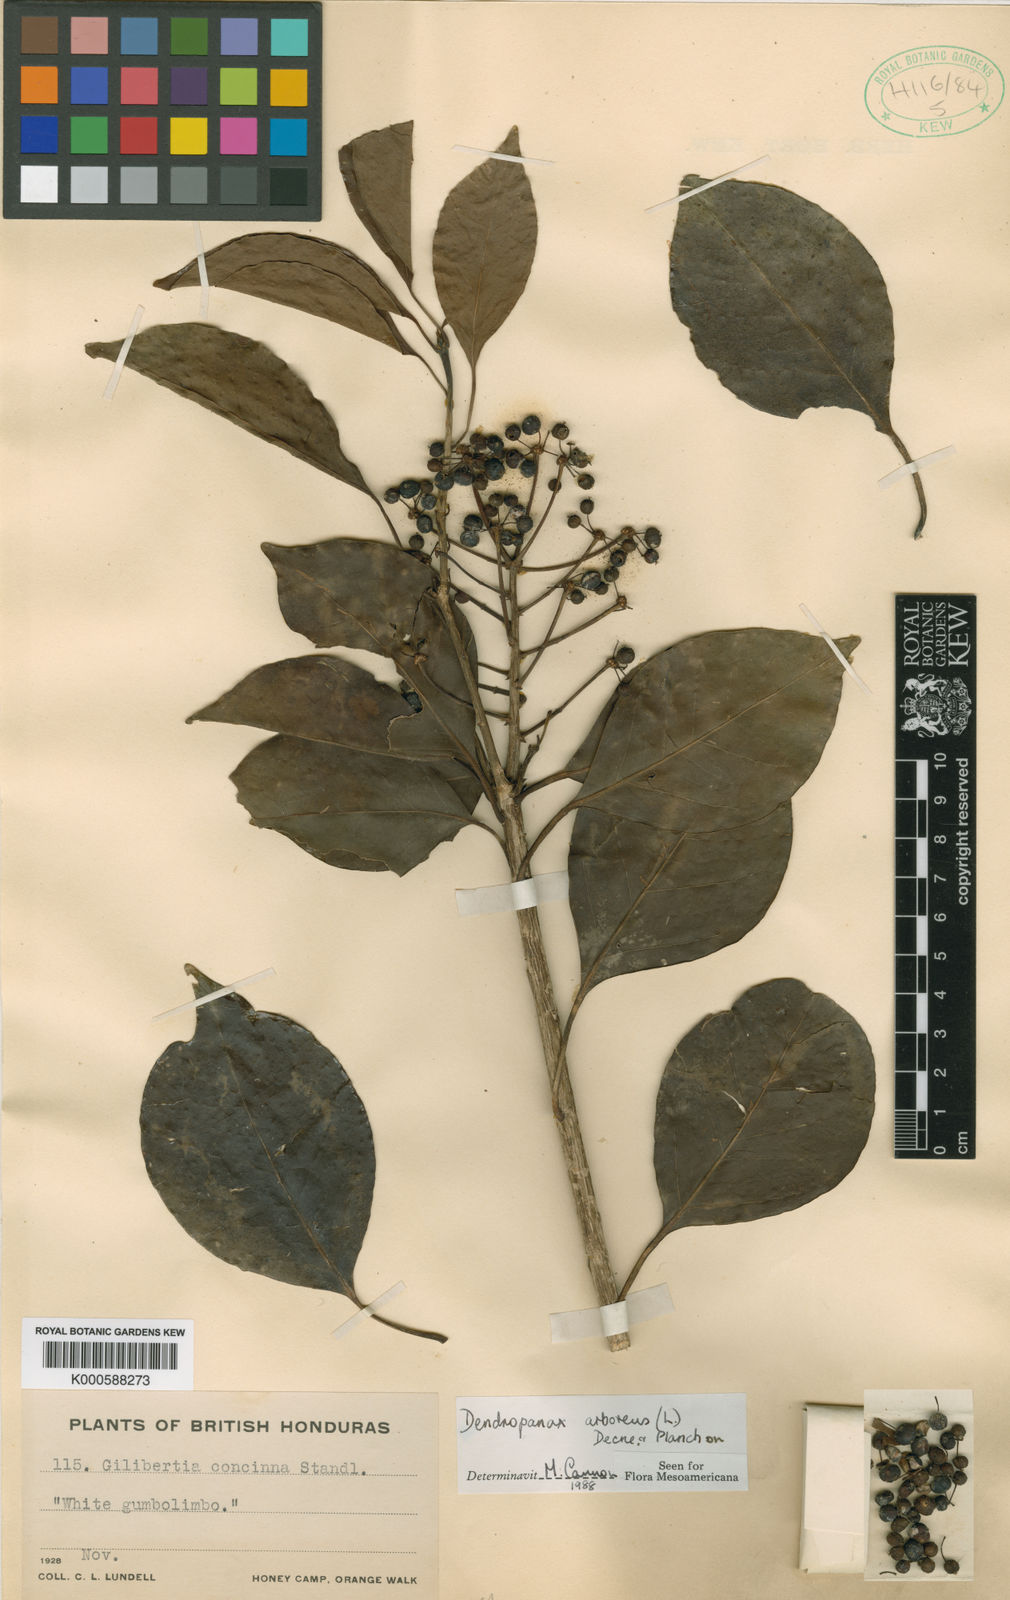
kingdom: Plantae
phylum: Tracheophyta
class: Magnoliopsida
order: Apiales
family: Araliaceae
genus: Dendropanax
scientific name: Dendropanax arboreus
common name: Potato-wood
